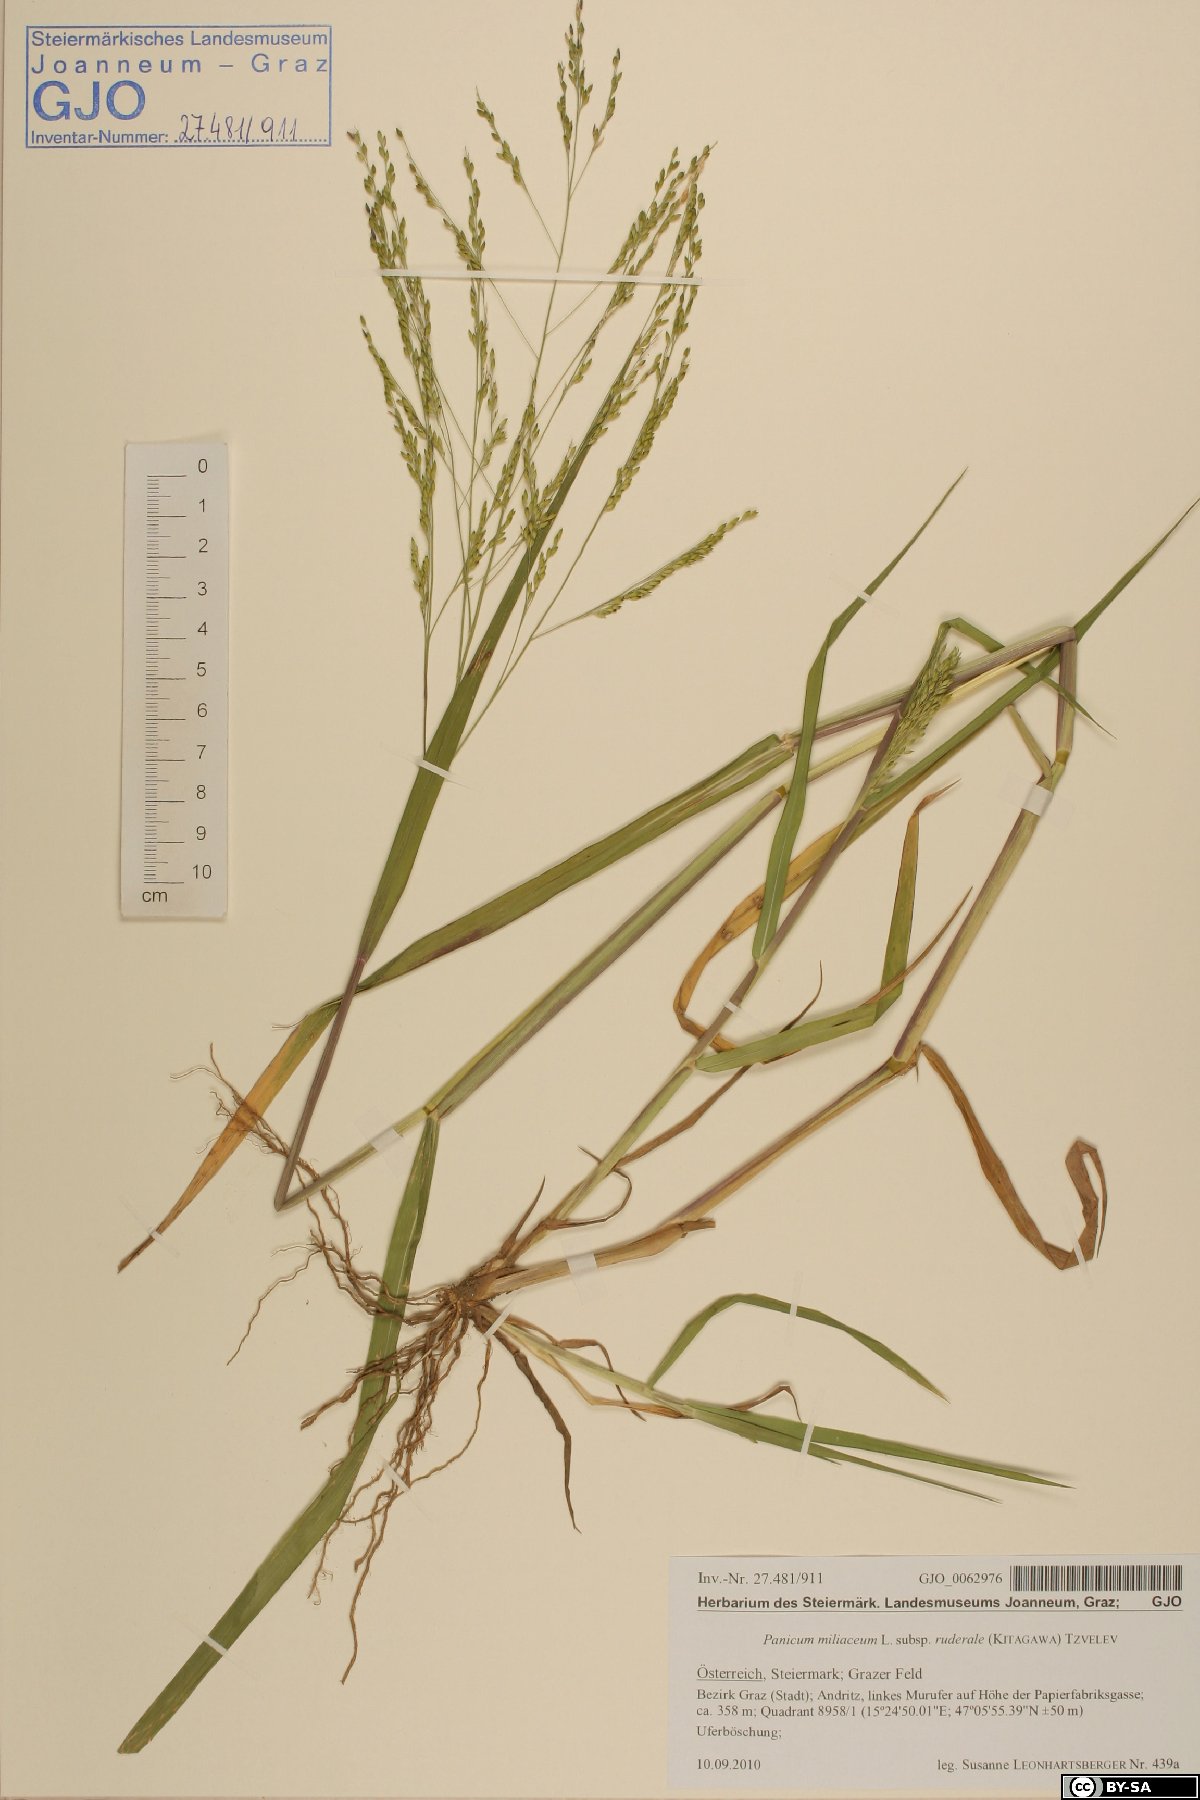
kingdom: Plantae
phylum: Tracheophyta
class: Liliopsida
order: Poales
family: Poaceae
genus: Panicum
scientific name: Panicum dichotomiflorum
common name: Autumn millet
